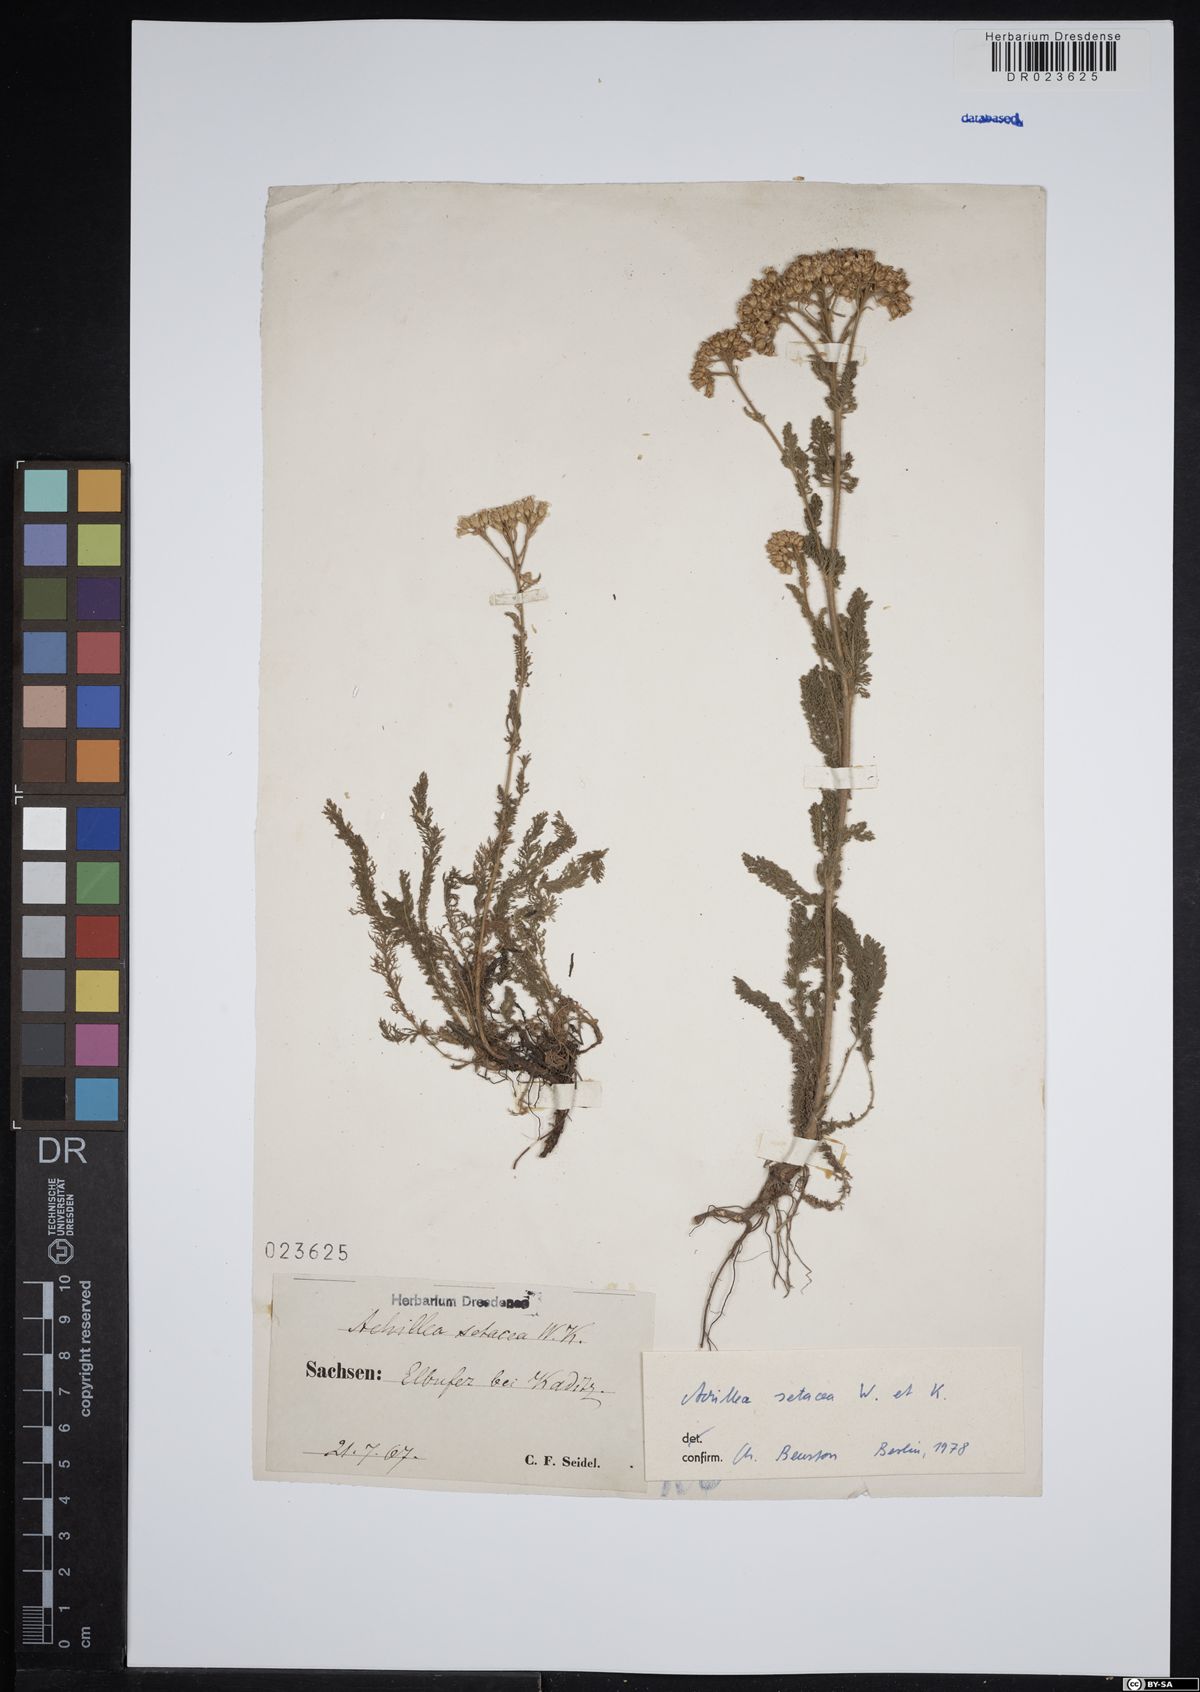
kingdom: Plantae
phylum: Tracheophyta
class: Magnoliopsida
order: Asterales
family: Asteraceae
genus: Achillea
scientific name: Achillea setacea
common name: Bristly yarrow
